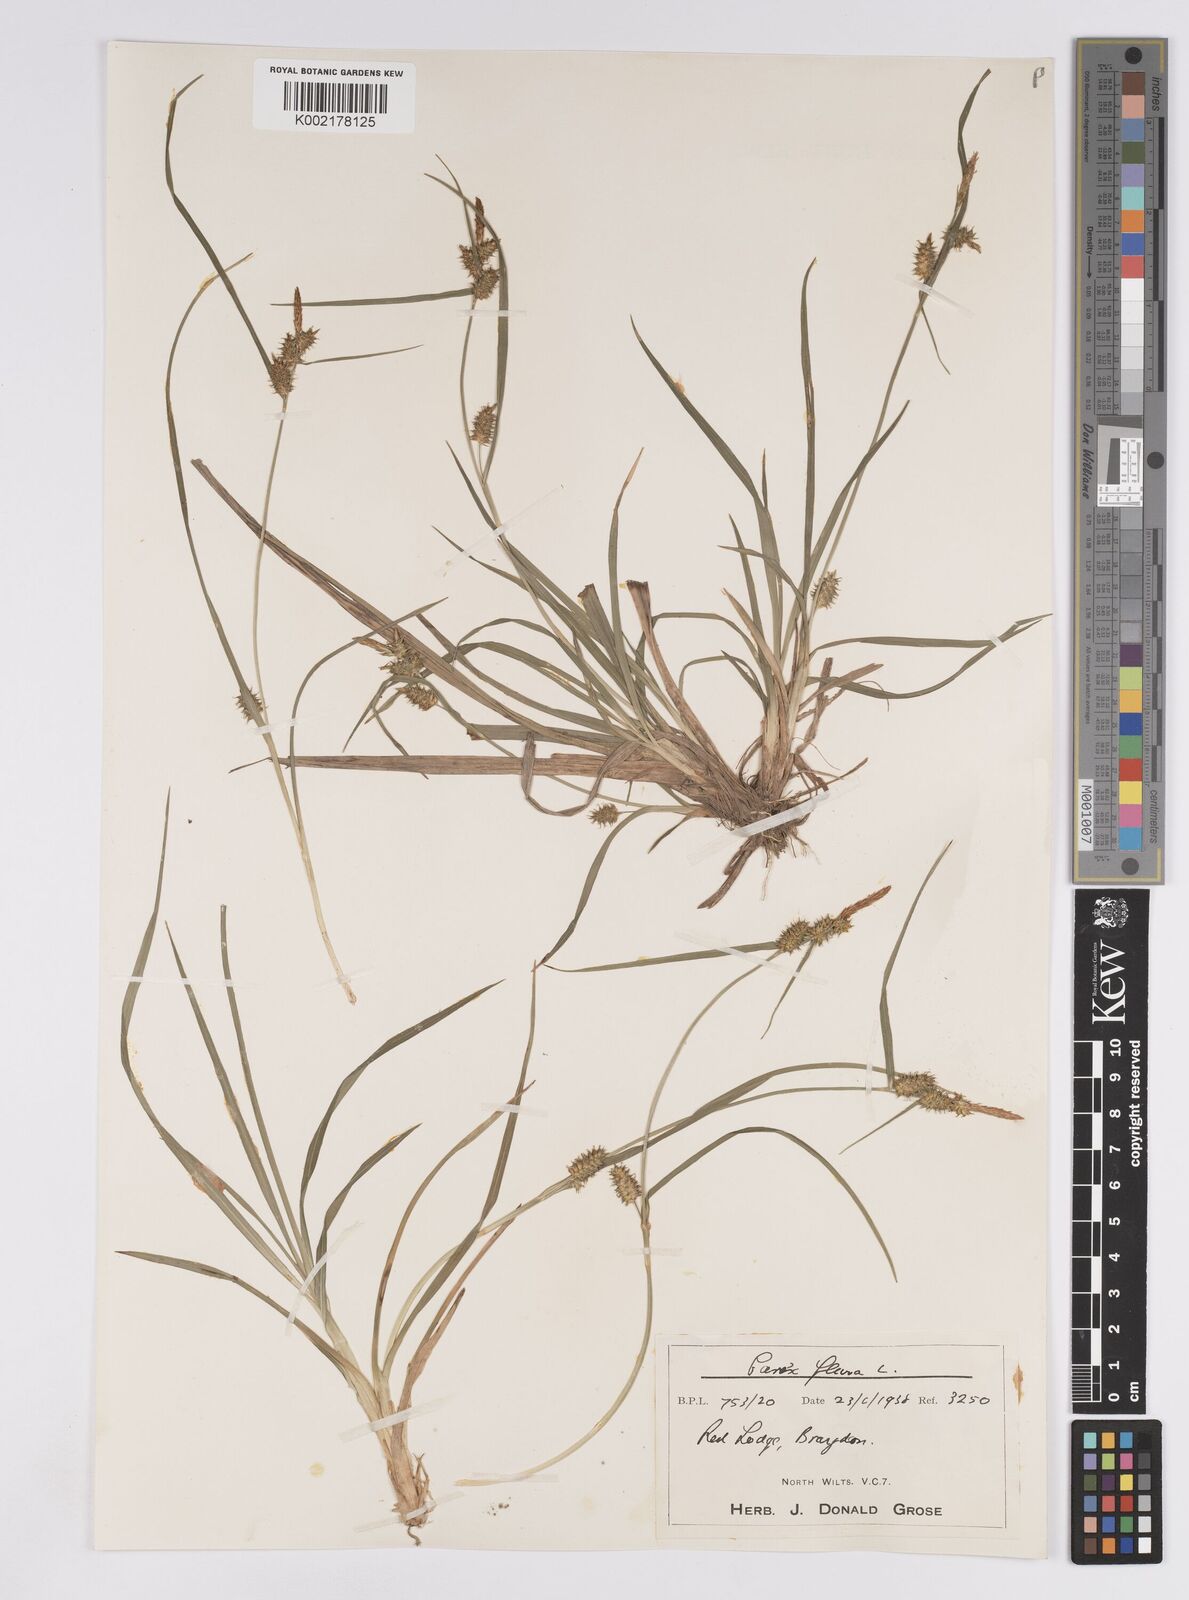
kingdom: Plantae
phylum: Tracheophyta
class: Liliopsida
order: Poales
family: Cyperaceae
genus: Carex
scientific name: Carex demissa
